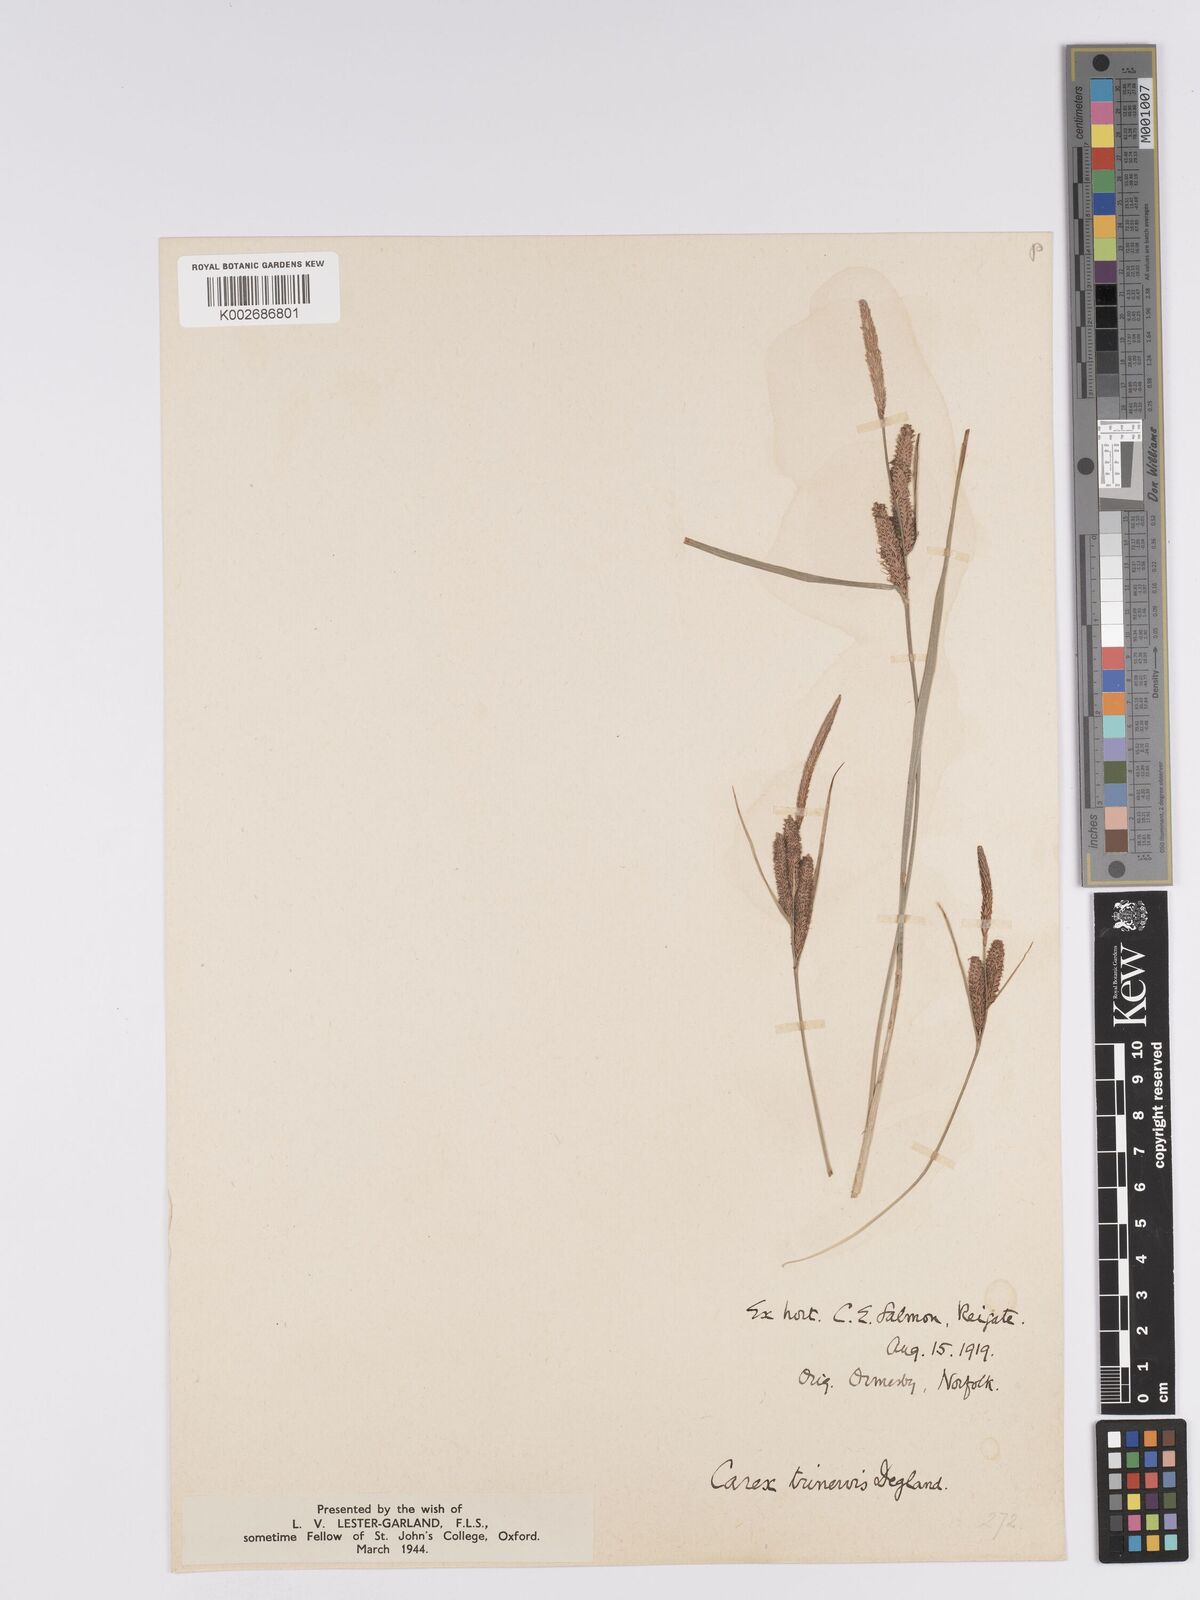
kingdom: Plantae
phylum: Tracheophyta
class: Liliopsida
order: Poales
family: Cyperaceae
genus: Carex
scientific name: Carex trinervis
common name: Three-nerved sedge
